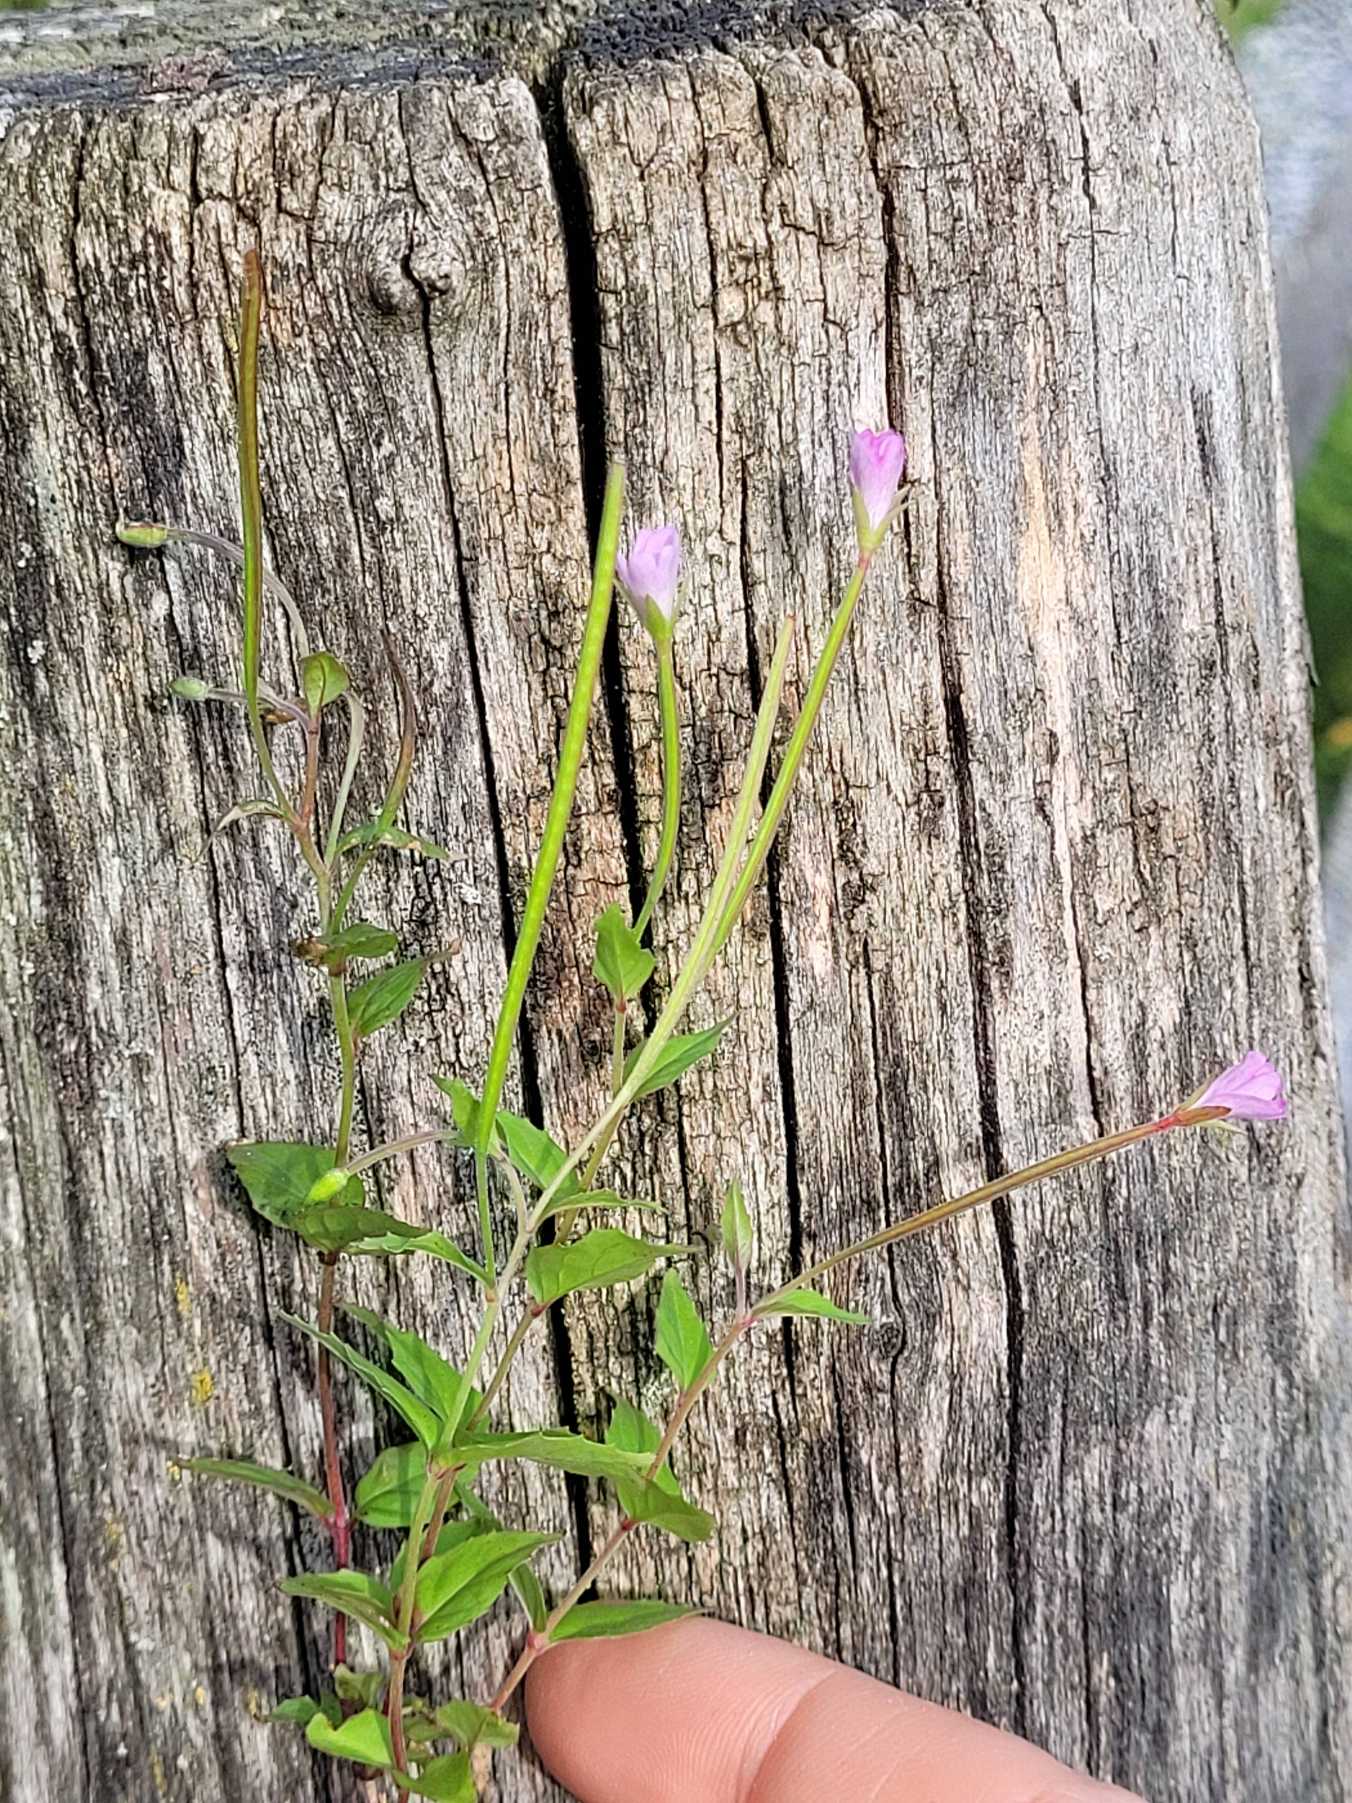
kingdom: Plantae
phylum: Tracheophyta
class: Magnoliopsida
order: Myrtales
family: Onagraceae
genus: Epilobium
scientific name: Epilobium
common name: Dueurtslægten
